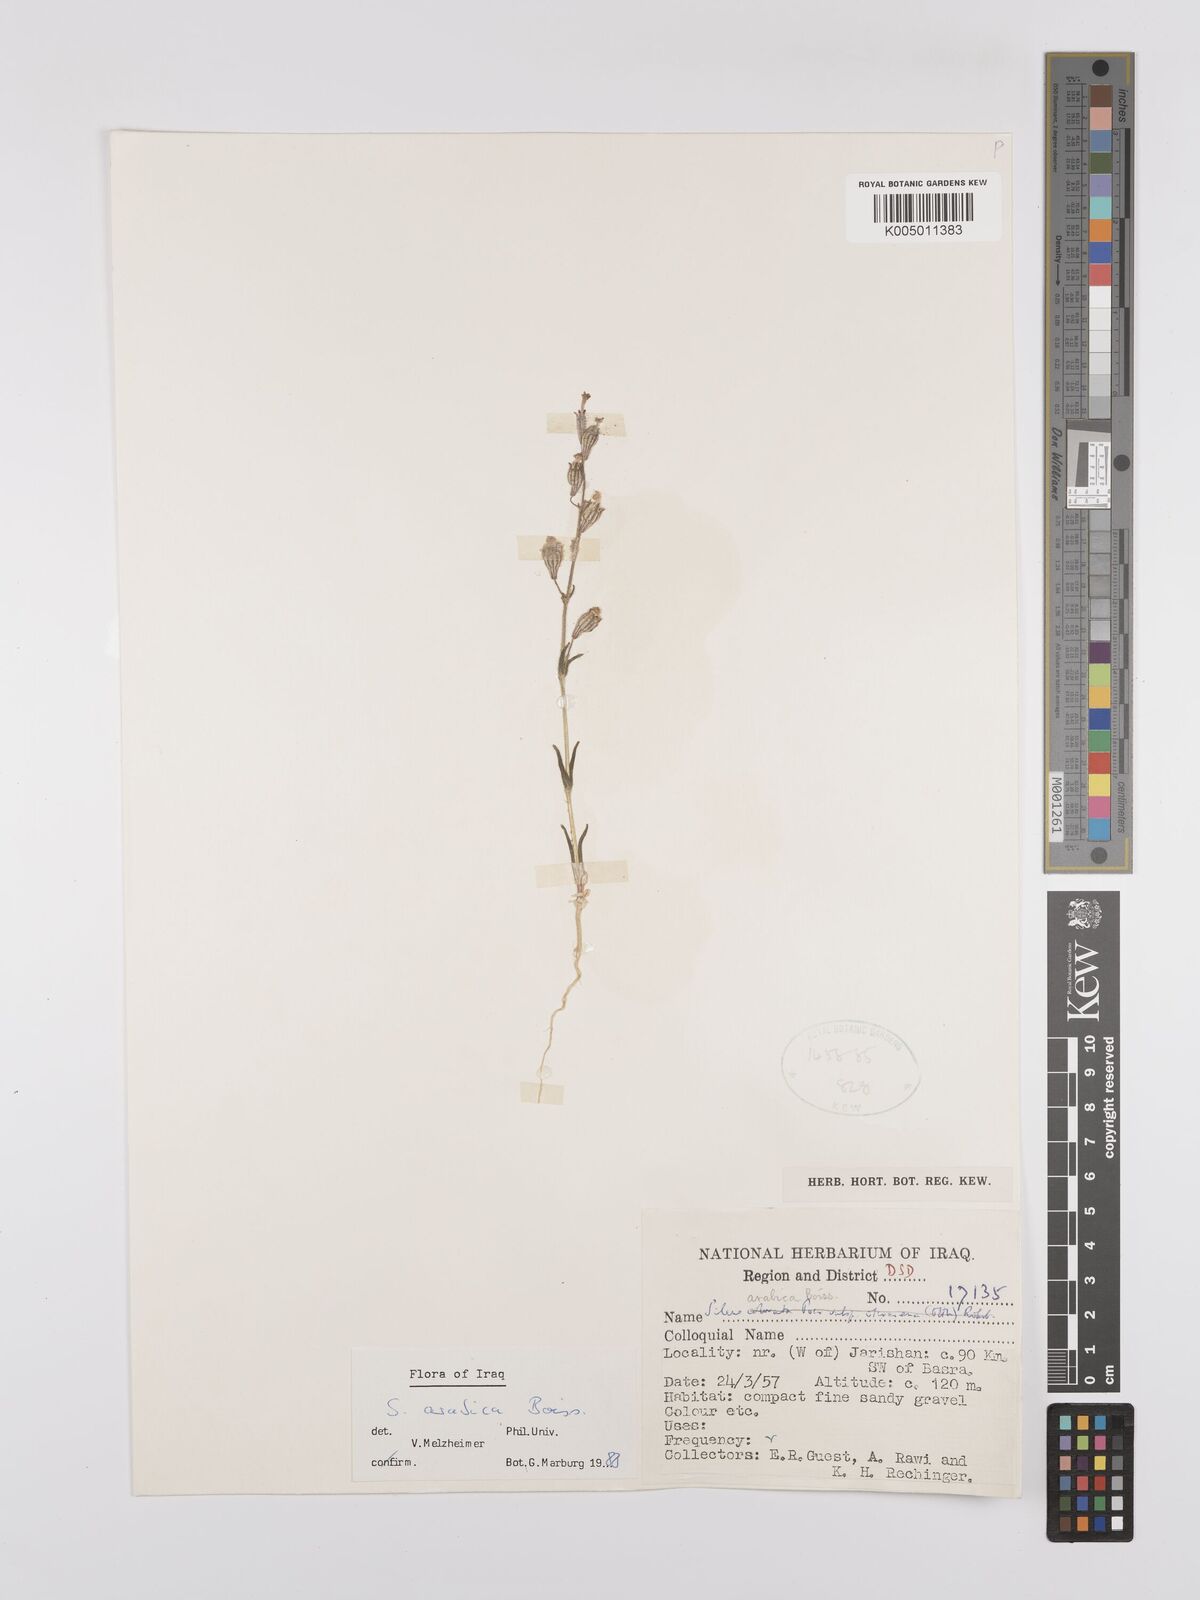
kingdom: Plantae
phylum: Tracheophyta
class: Magnoliopsida
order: Caryophyllales
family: Caryophyllaceae
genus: Silene
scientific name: Silene arabica
